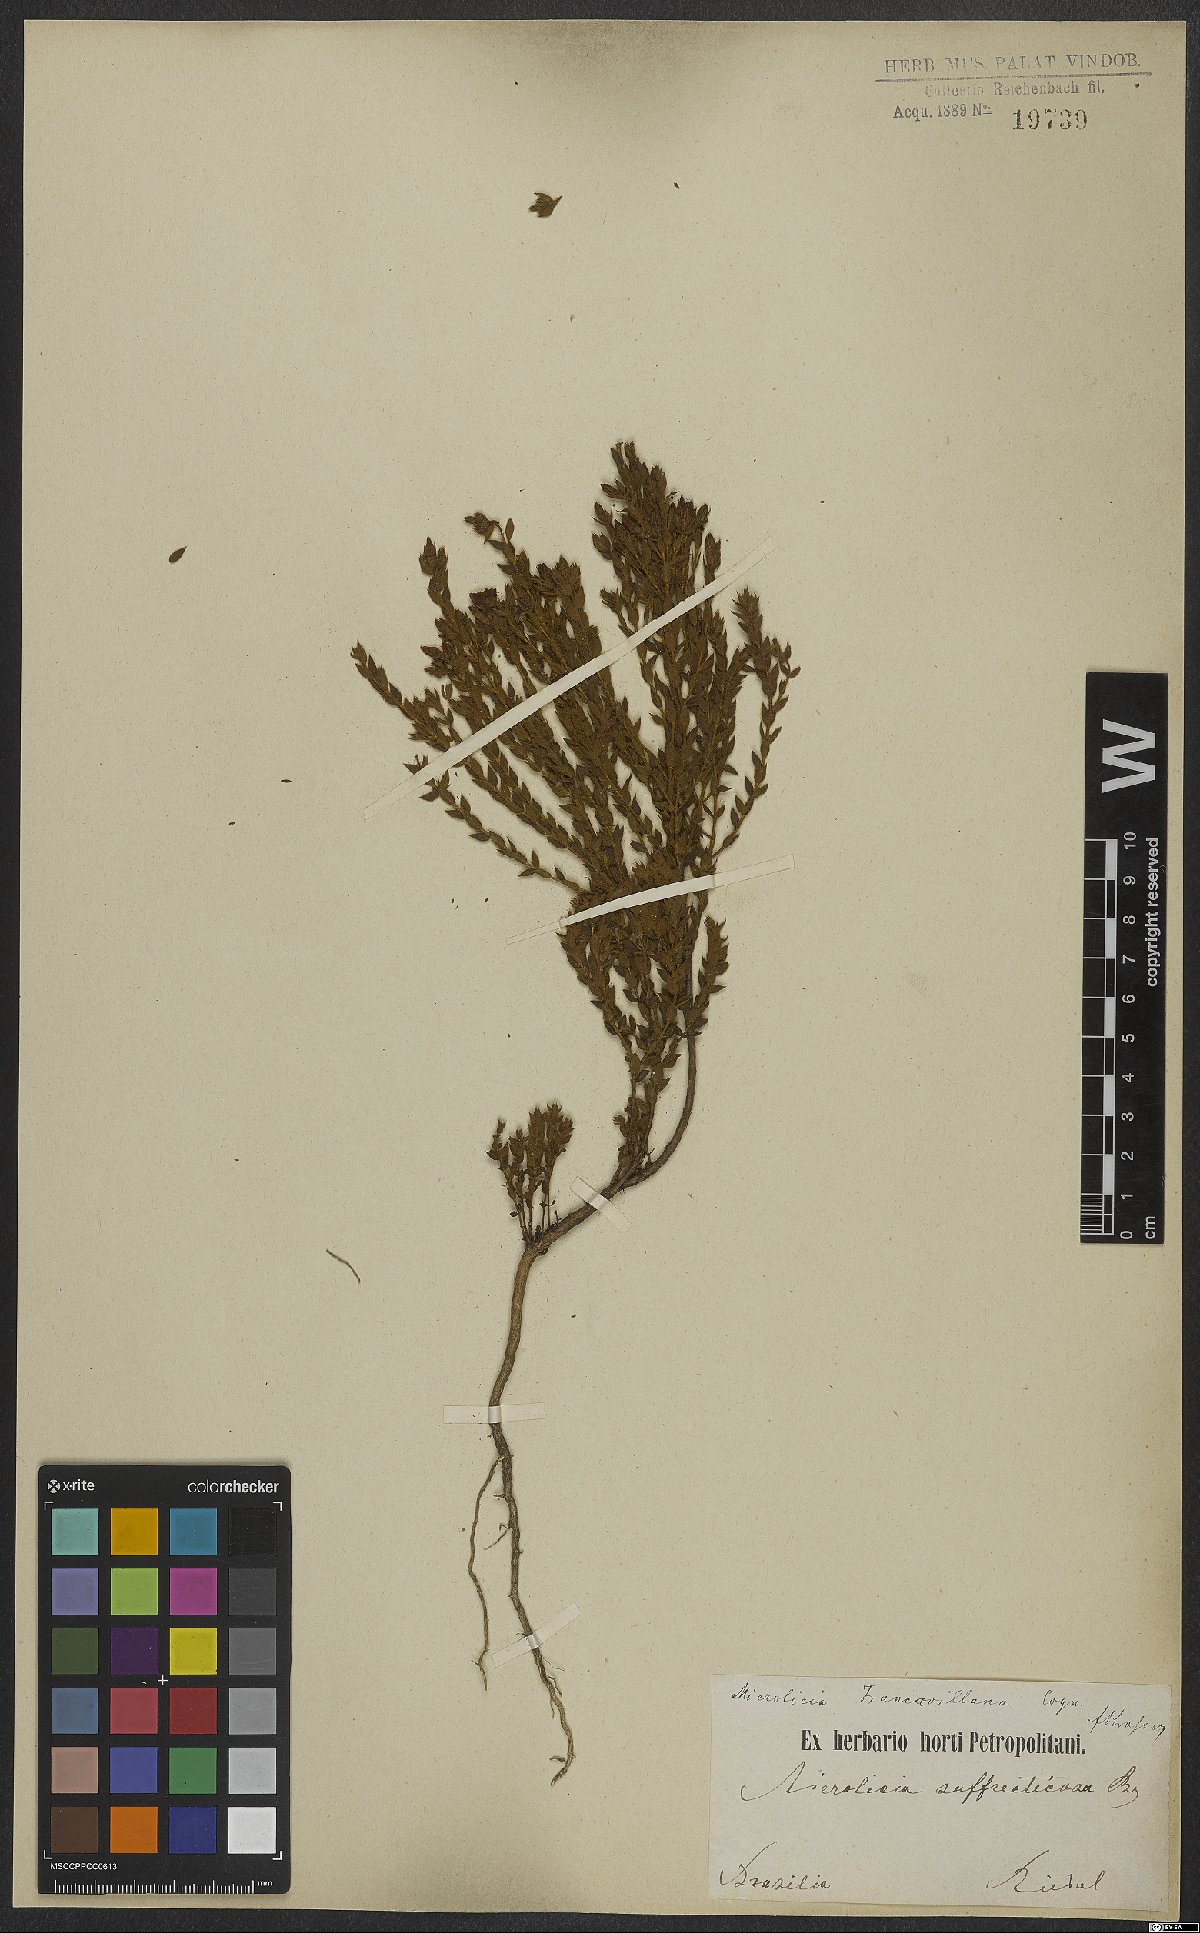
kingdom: Plantae
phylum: Tracheophyta
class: Magnoliopsida
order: Myrtales
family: Melastomataceae
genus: Microlicia
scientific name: Microlicia hirticalyx
